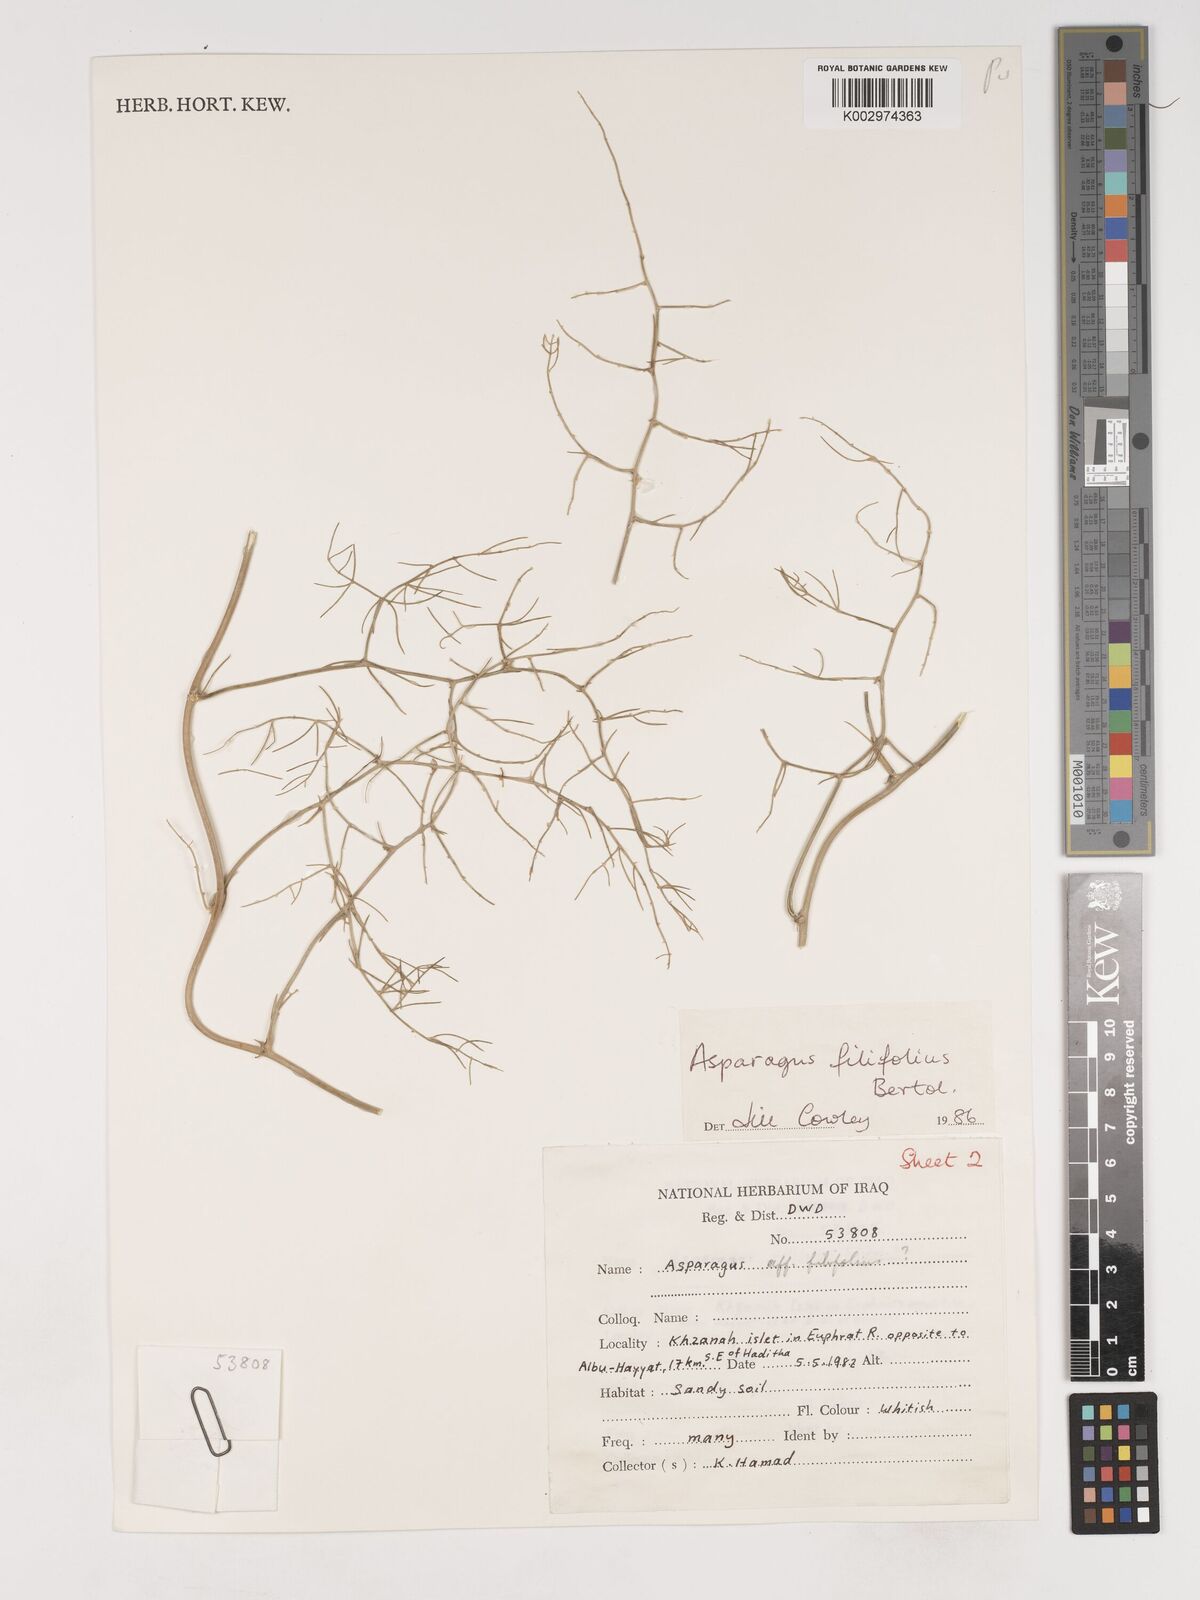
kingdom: Plantae
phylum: Tracheophyta
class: Liliopsida
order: Asparagales
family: Asparagaceae
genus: Asparagus
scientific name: Asparagus filifolius
